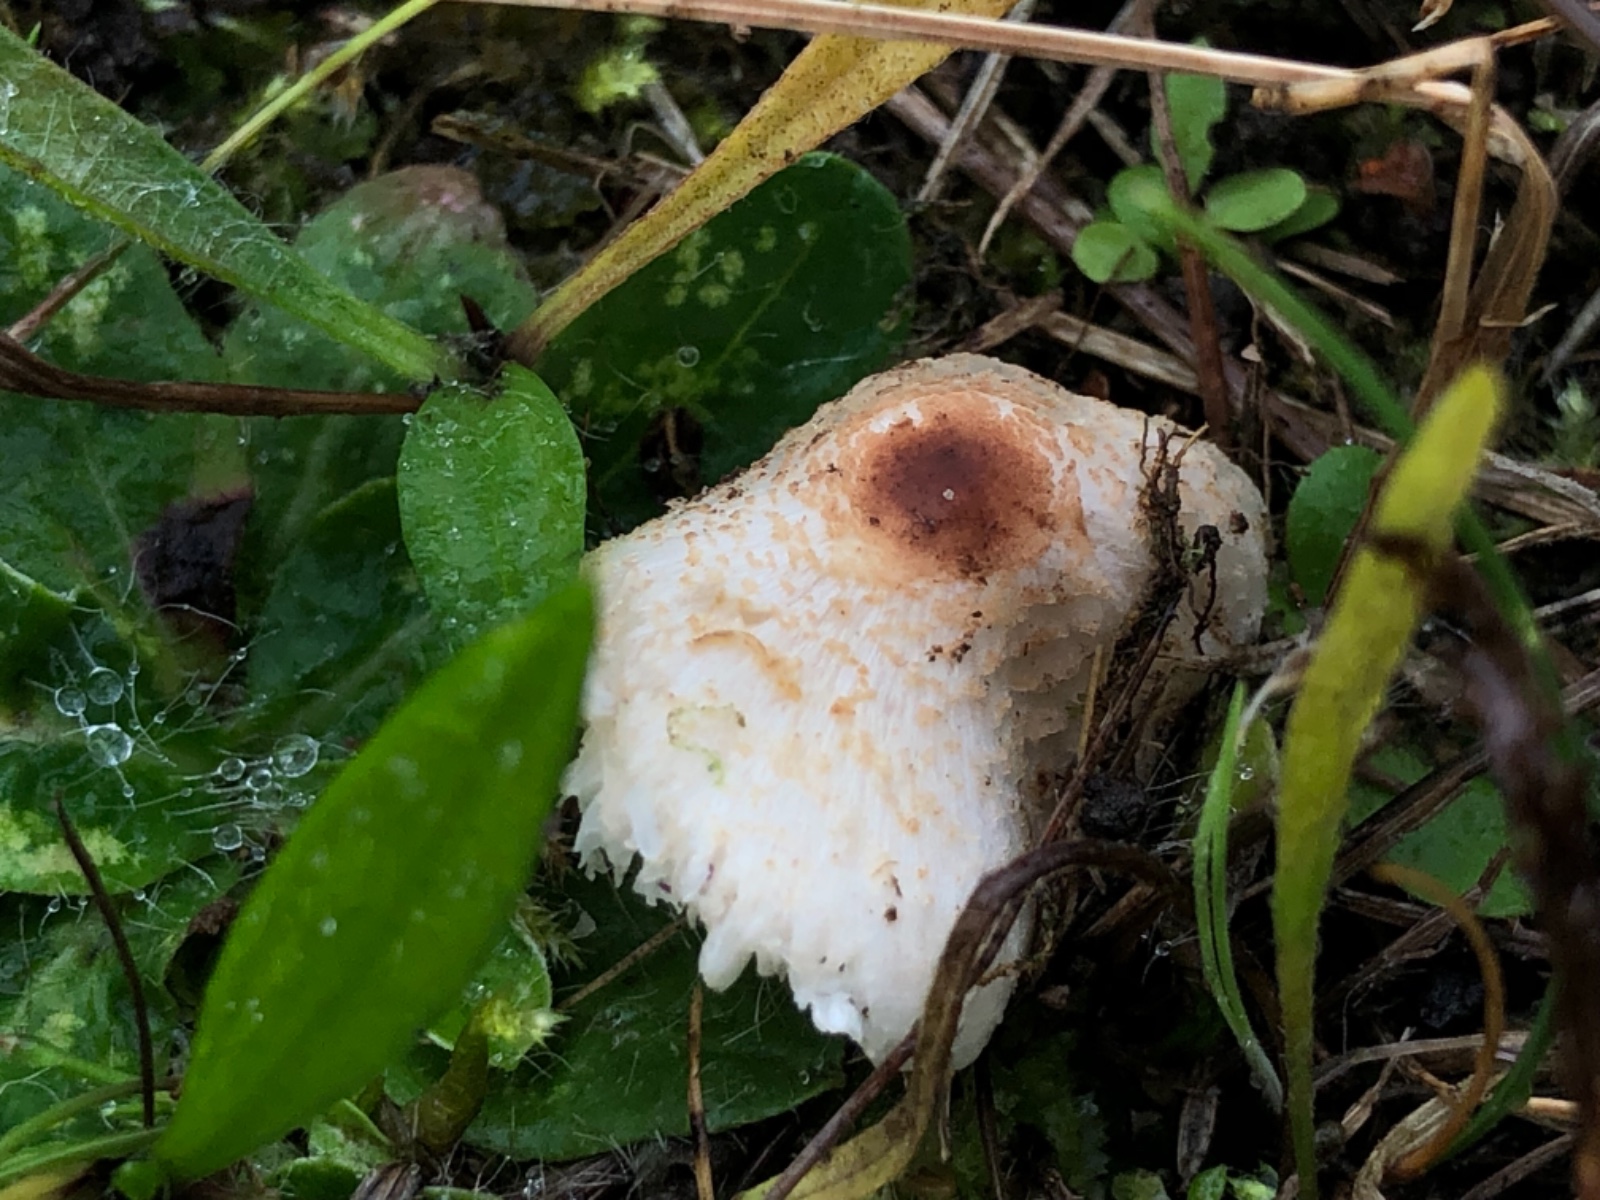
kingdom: Fungi
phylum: Basidiomycota
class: Agaricomycetes
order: Agaricales
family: Agaricaceae
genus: Lepiota
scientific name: Lepiota cristata
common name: stinkende parasolhat
